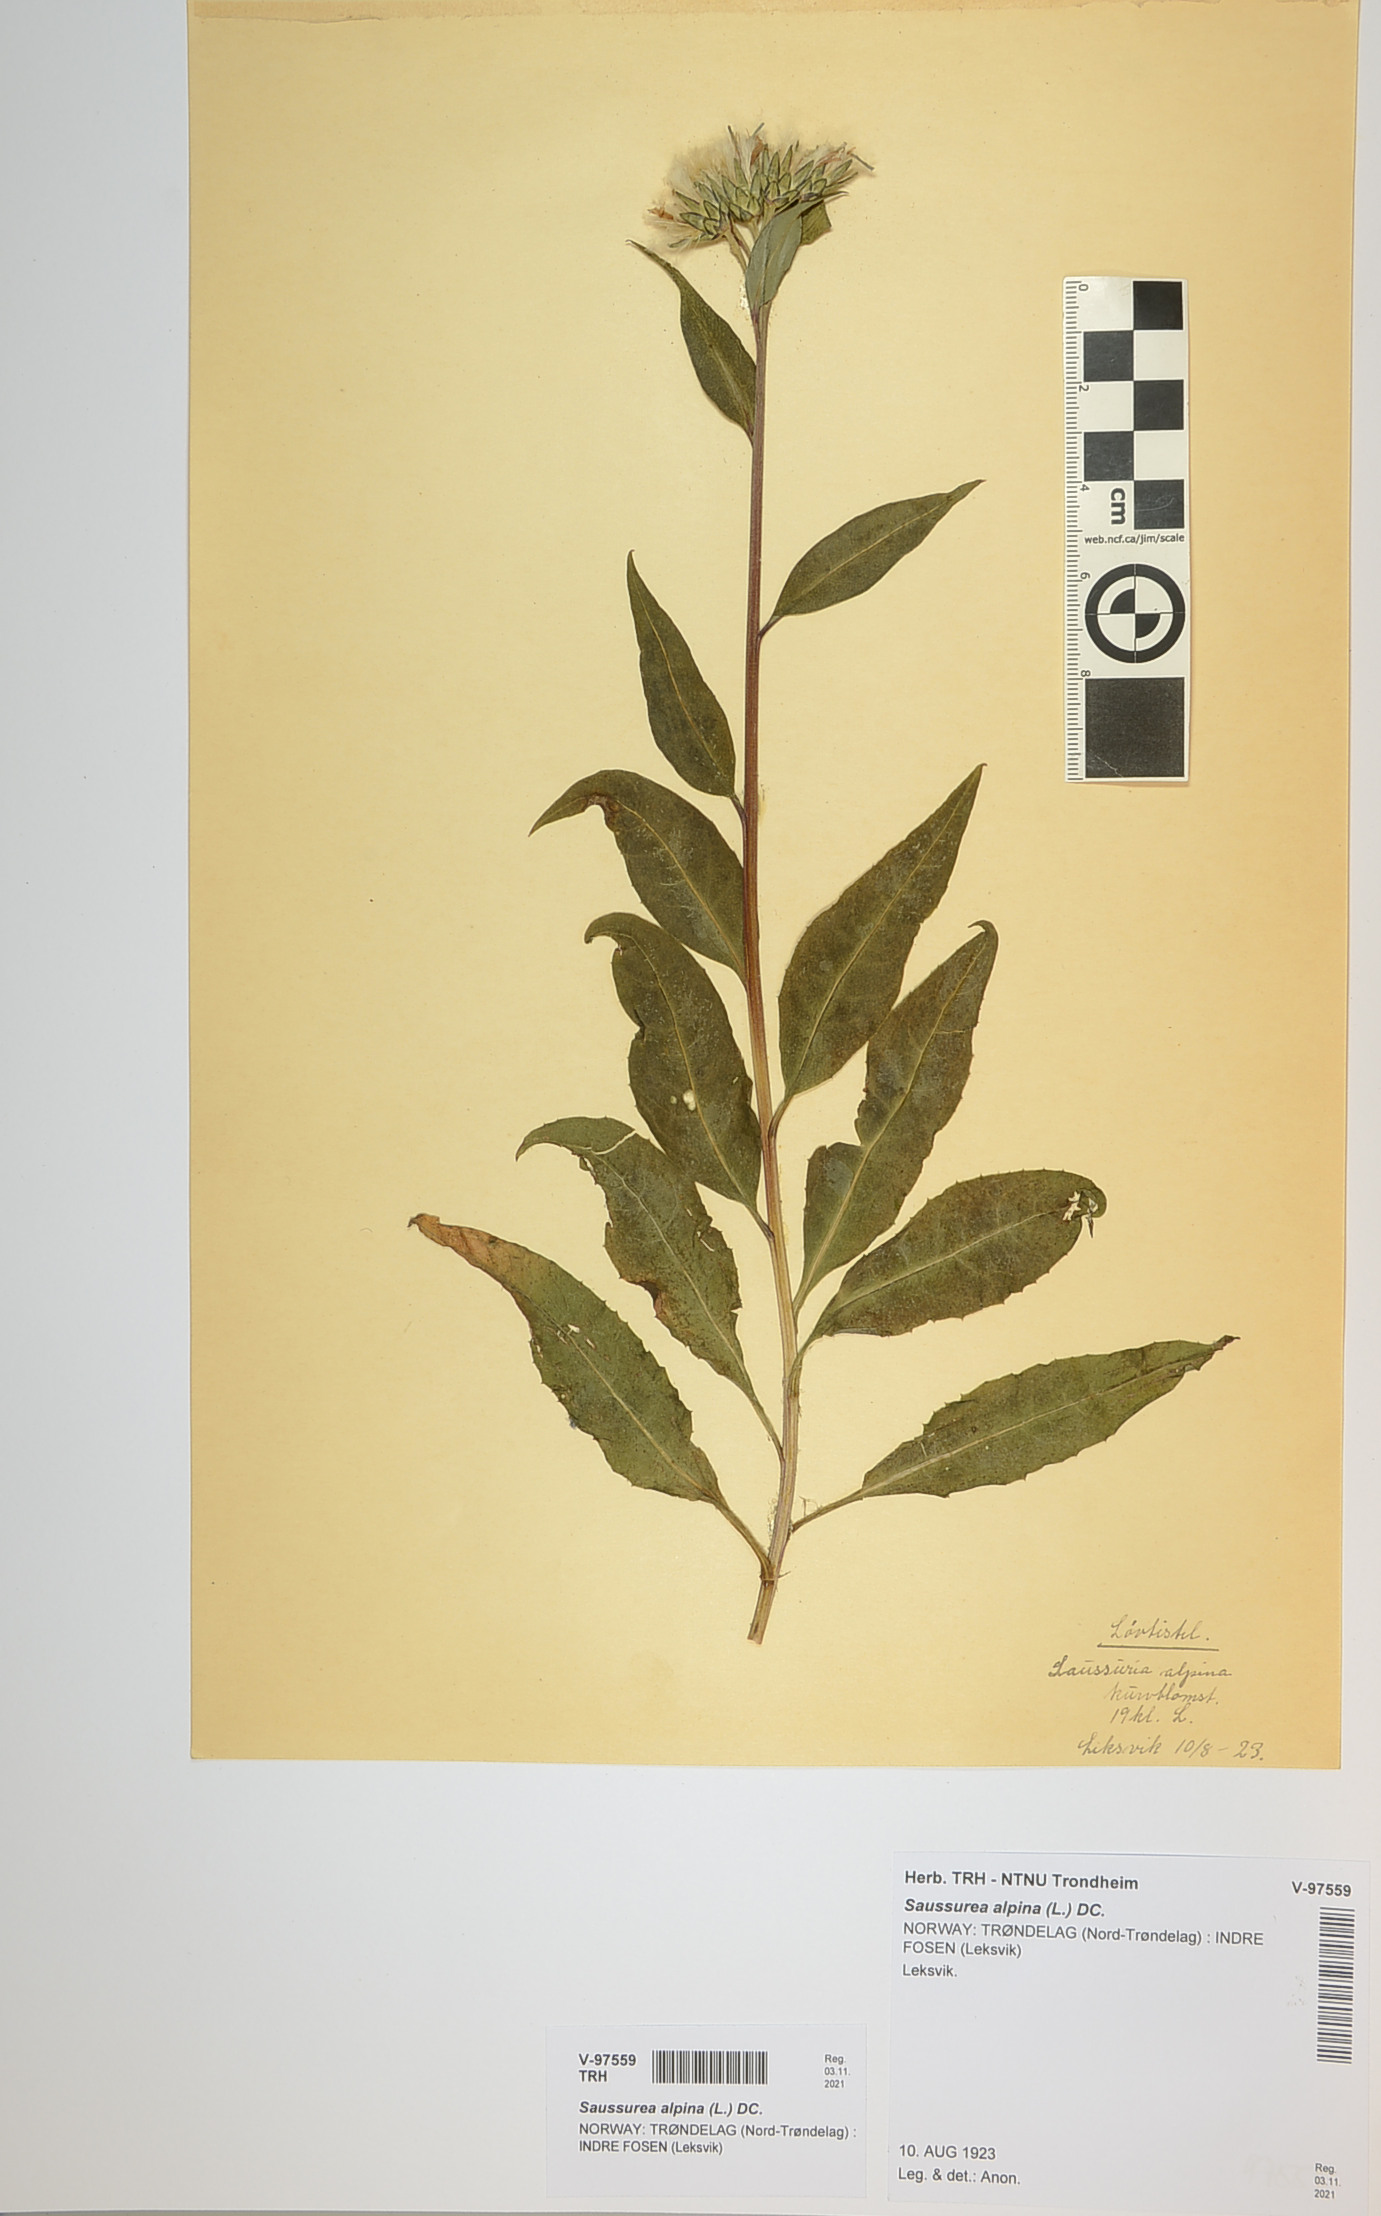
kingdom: Plantae
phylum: Tracheophyta
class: Magnoliopsida
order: Asterales
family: Asteraceae
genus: Saussurea
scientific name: Saussurea alpina
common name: Alpine saw-wort
